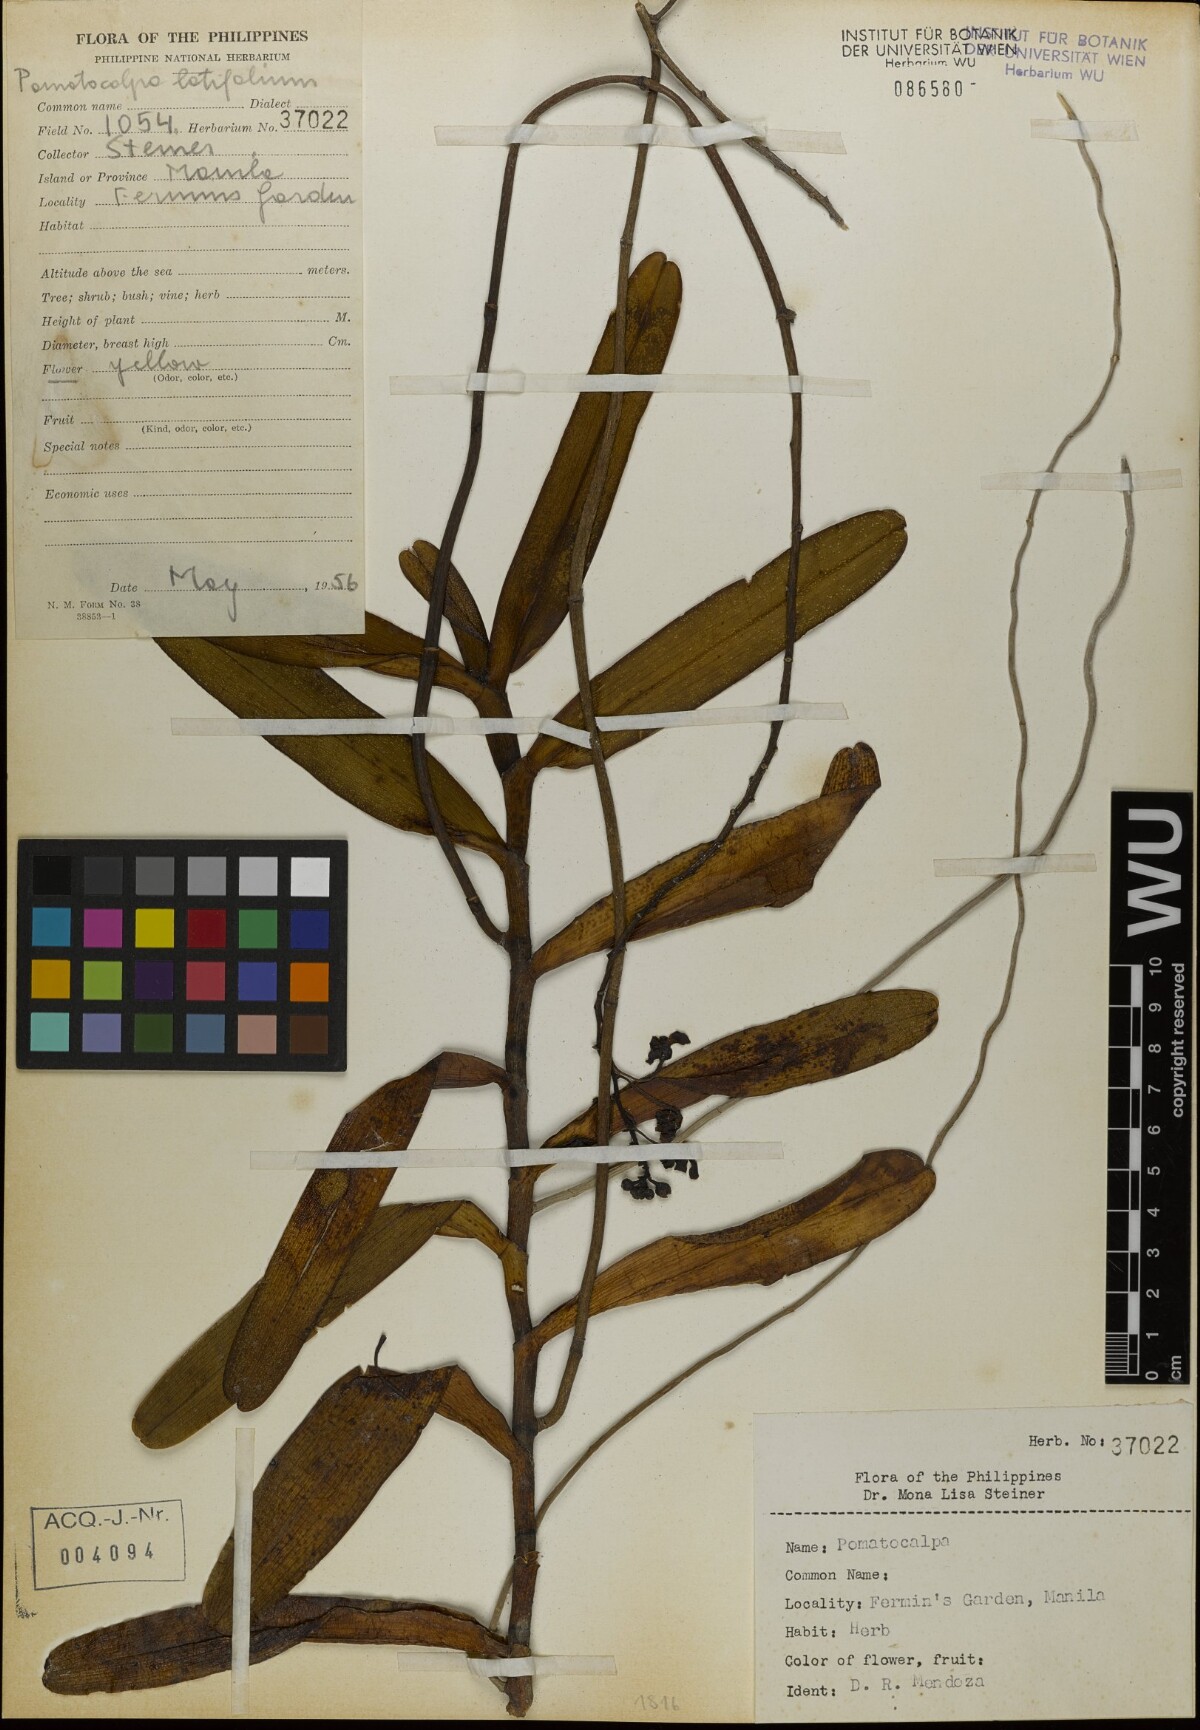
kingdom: Plantae
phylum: Tracheophyta
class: Liliopsida
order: Asparagales
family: Orchidaceae
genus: Pomatocalpa
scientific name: Pomatocalpa diffusum
